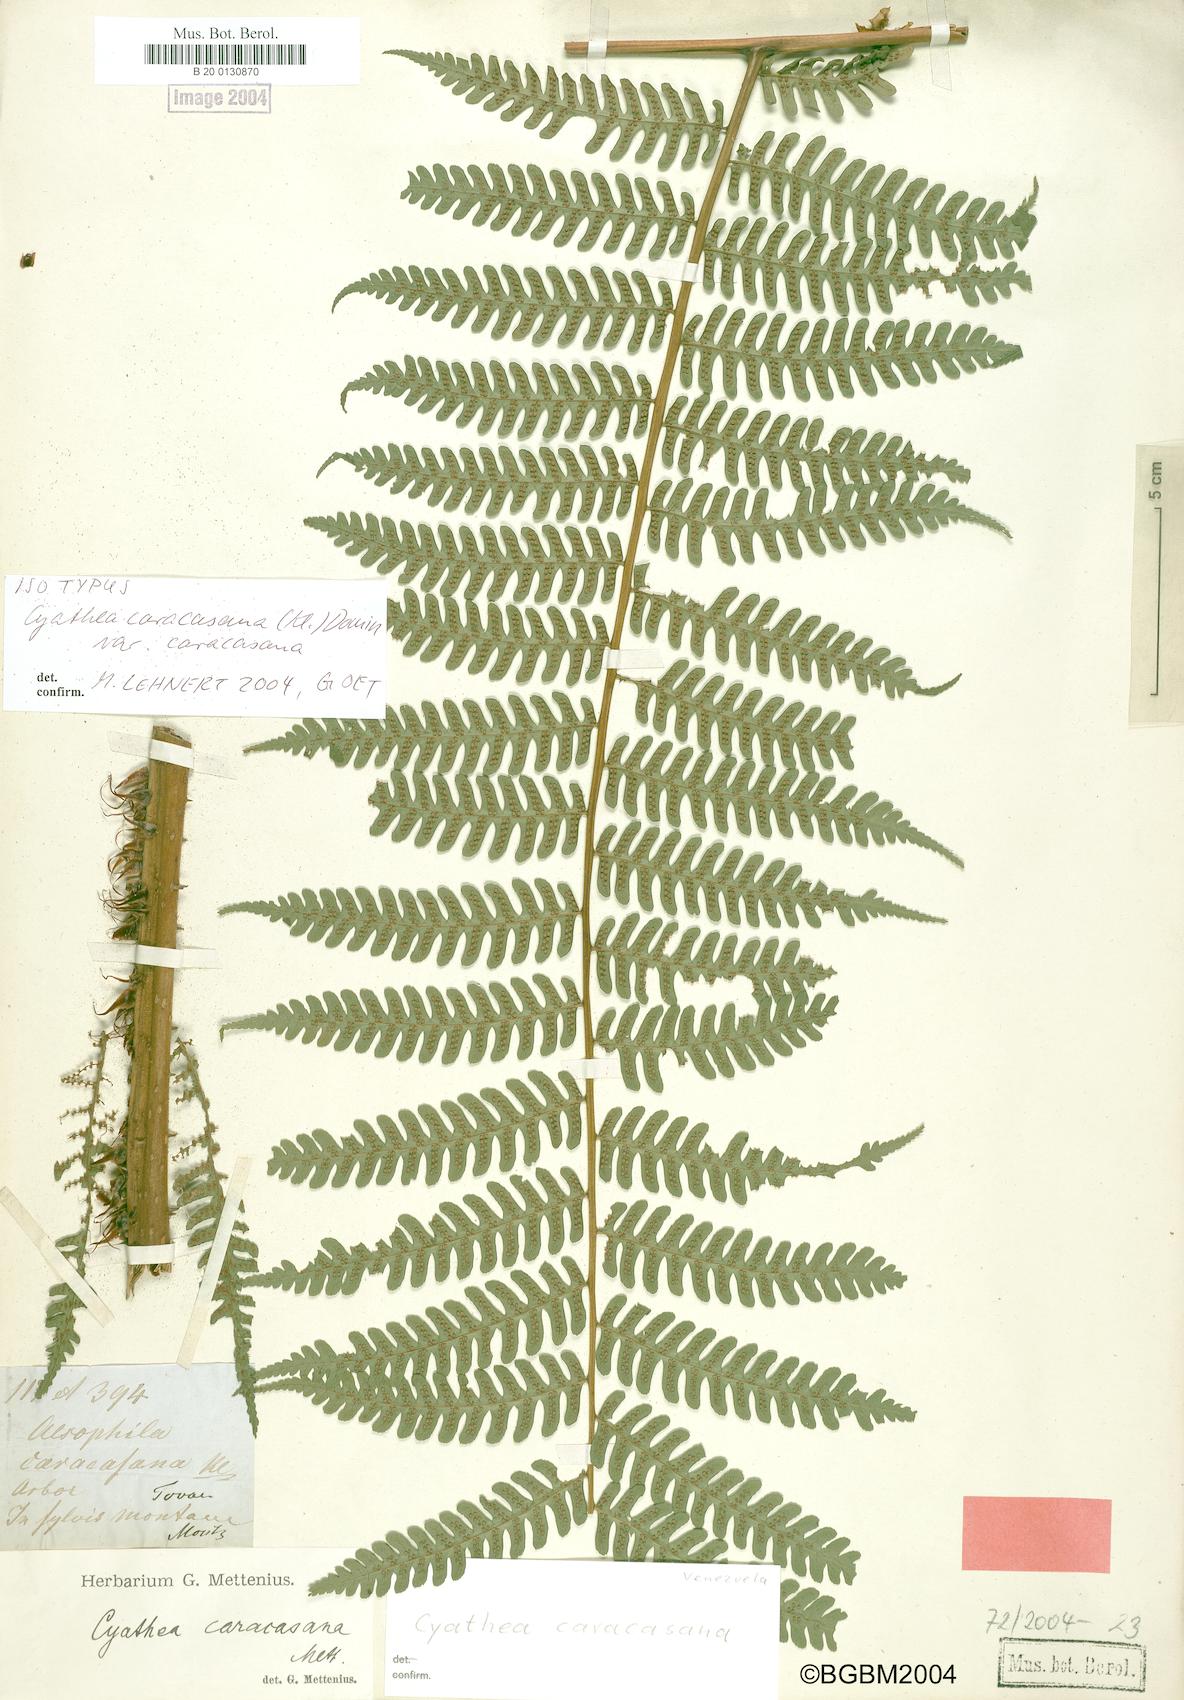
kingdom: Plantae
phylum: Tracheophyta
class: Polypodiopsida
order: Cyatheales
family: Cyatheaceae
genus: Cyathea
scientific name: Cyathea caracasana
